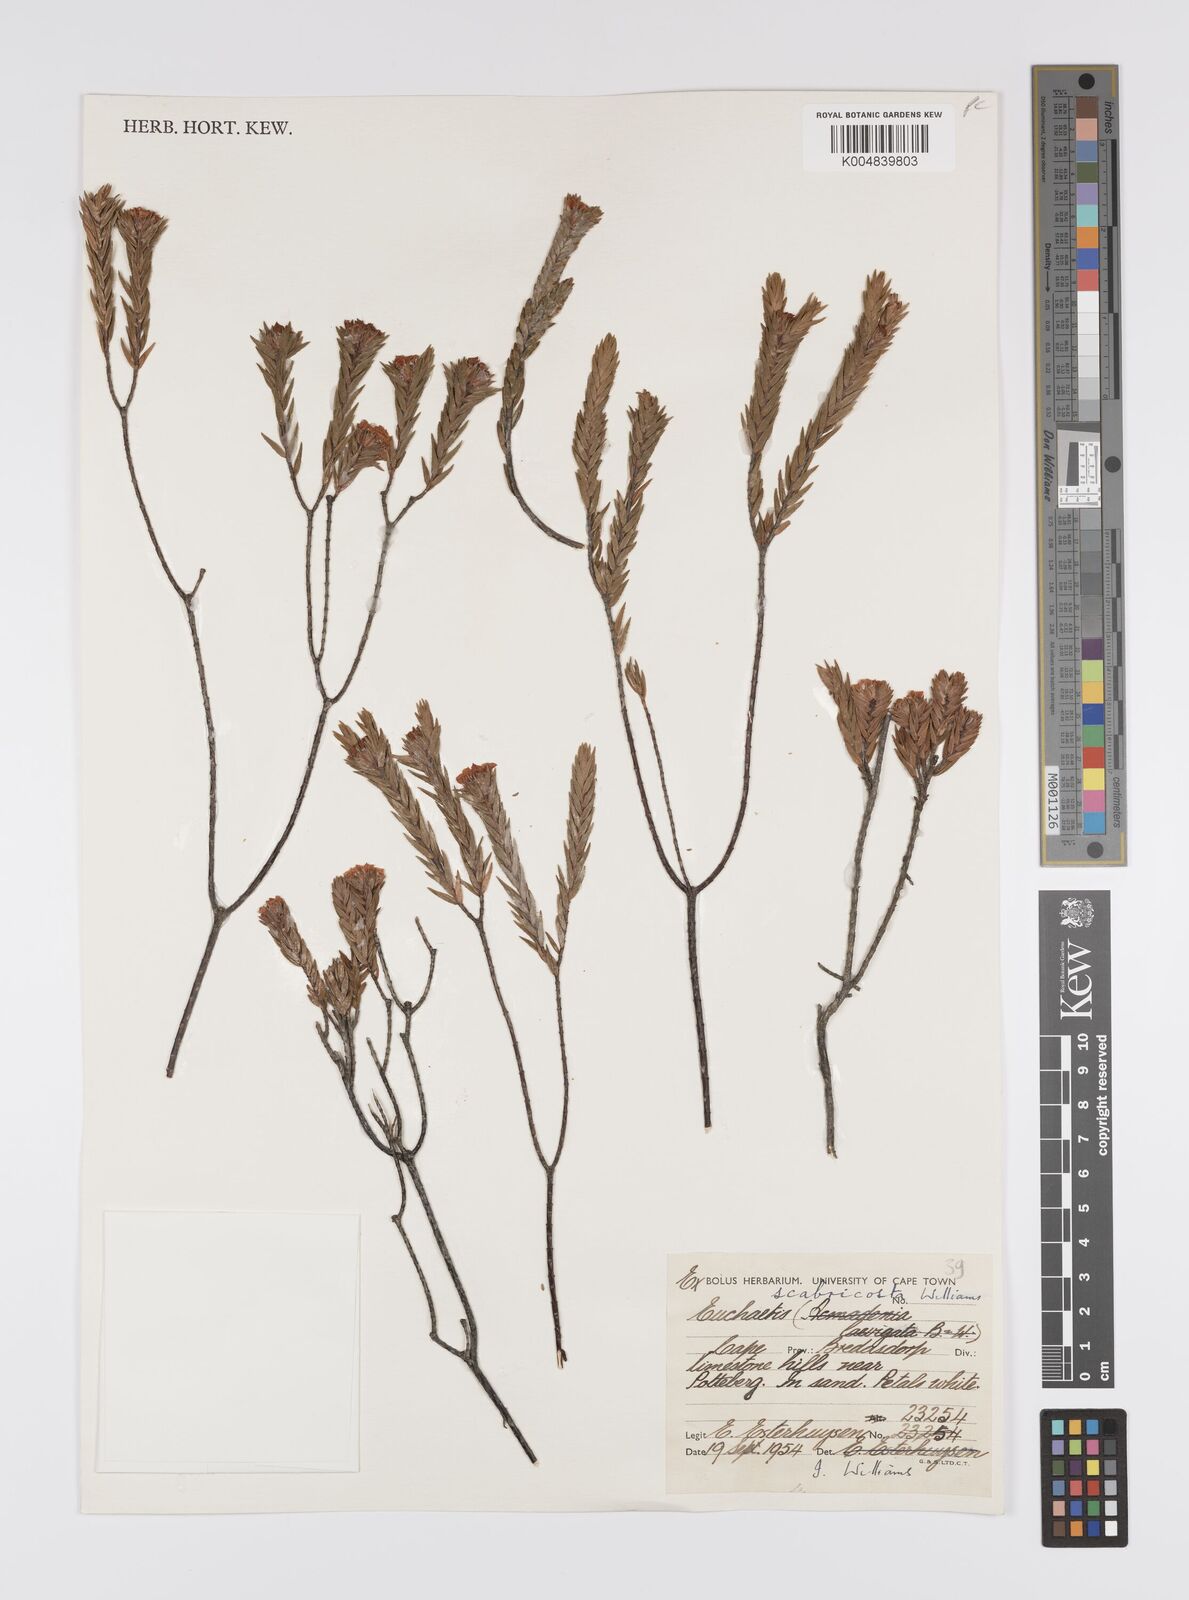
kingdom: Plantae
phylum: Tracheophyta
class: Magnoliopsida
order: Sapindales
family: Rutaceae
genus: Euchaetis
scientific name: Euchaetis scabricosta
